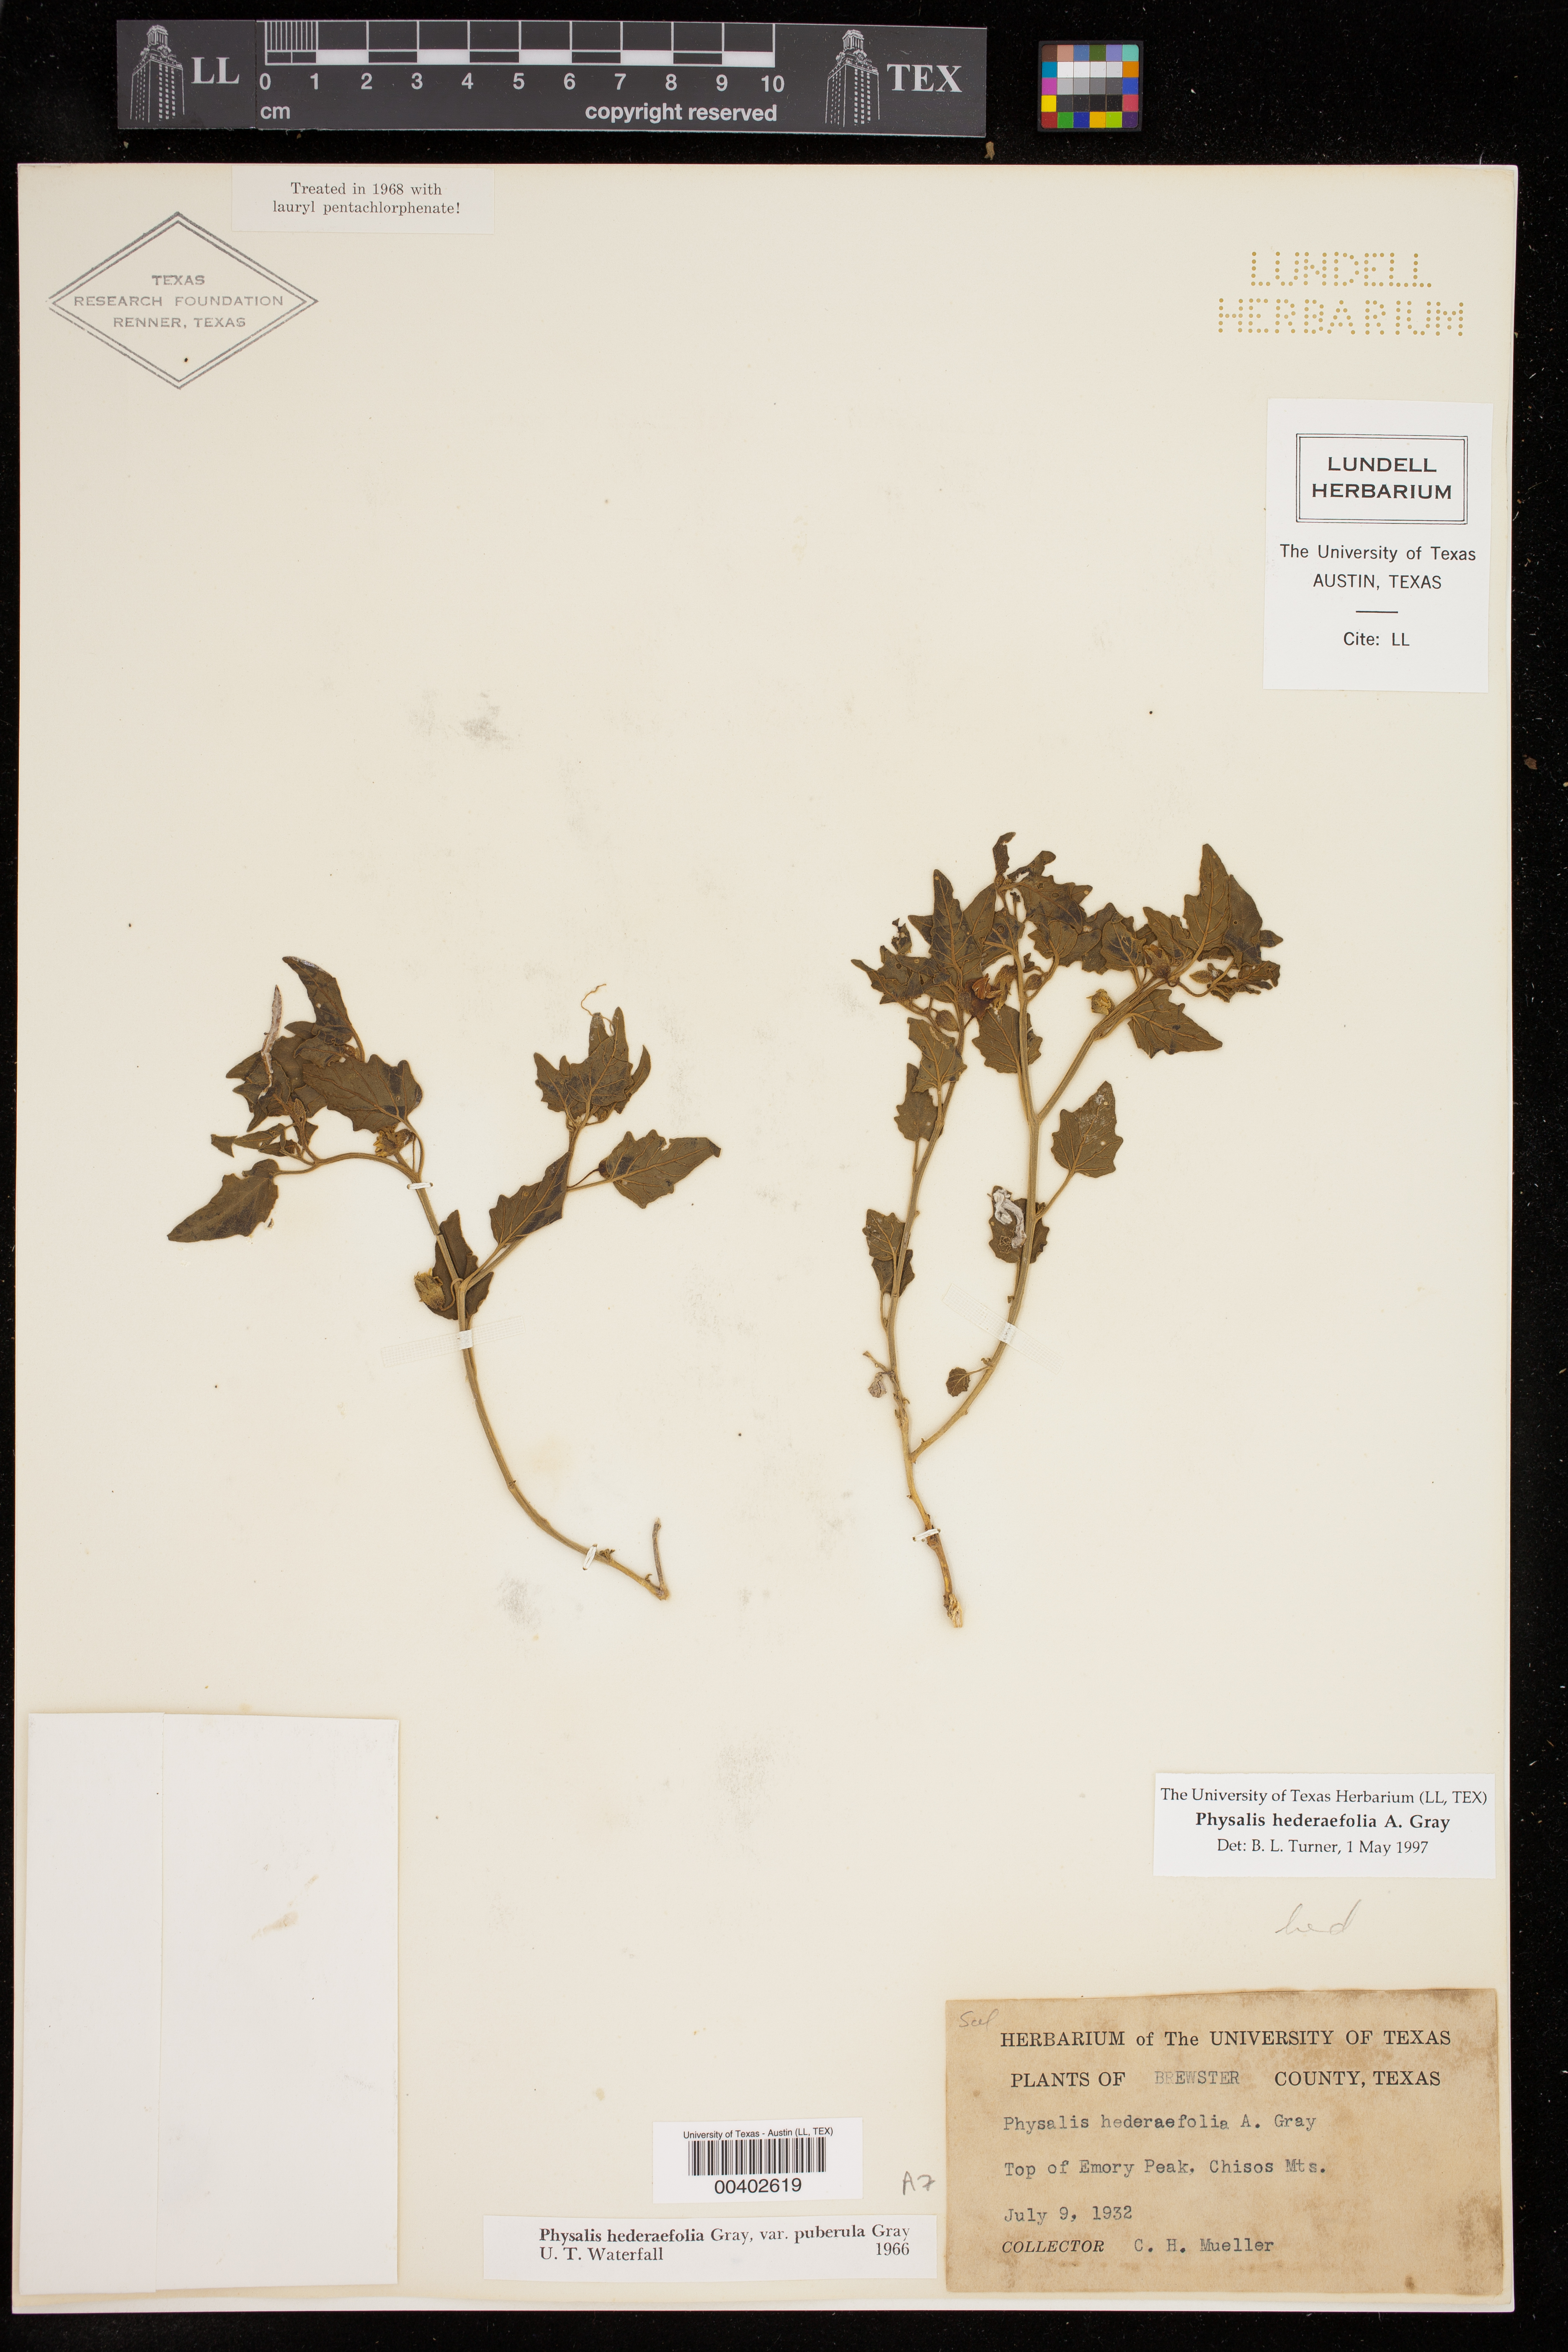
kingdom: Plantae
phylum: Tracheophyta
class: Magnoliopsida
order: Solanales
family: Solanaceae
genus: Physalis
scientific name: Physalis hederifolia
